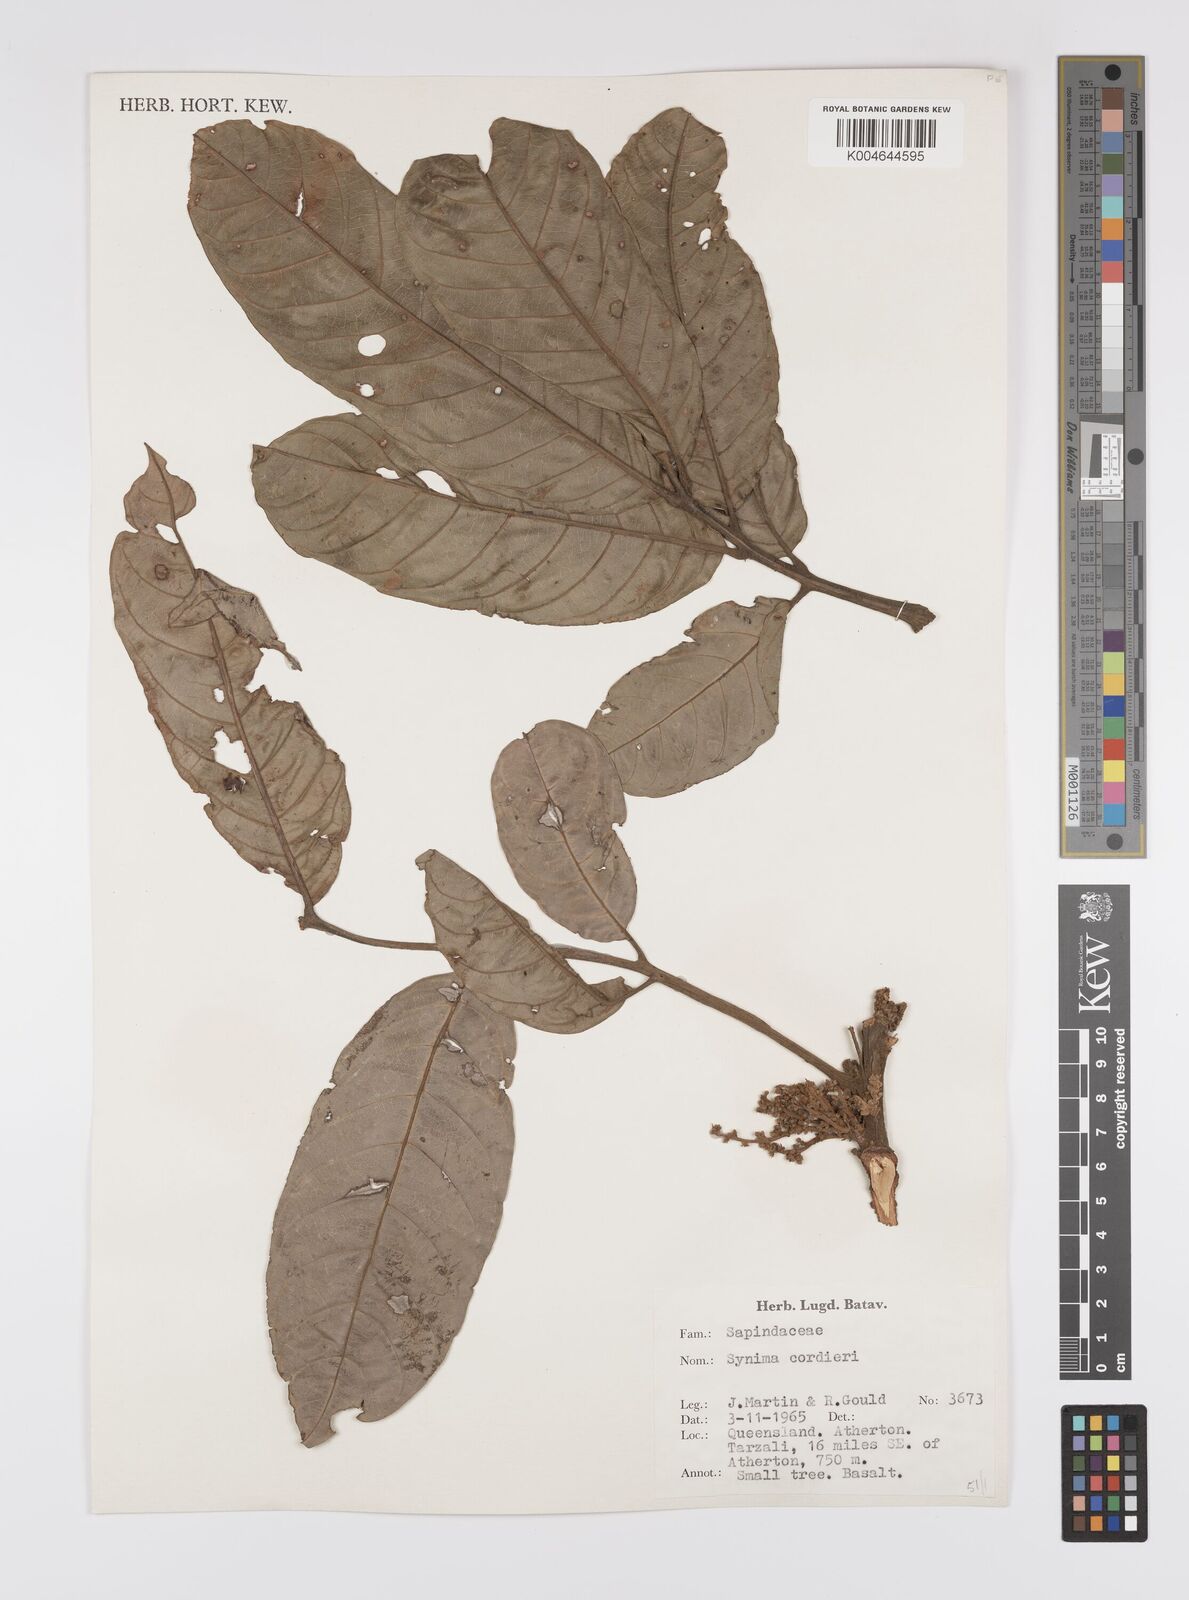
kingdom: Plantae
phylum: Tracheophyta
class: Magnoliopsida
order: Sapindales
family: Sapindaceae
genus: Synima
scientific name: Synima
